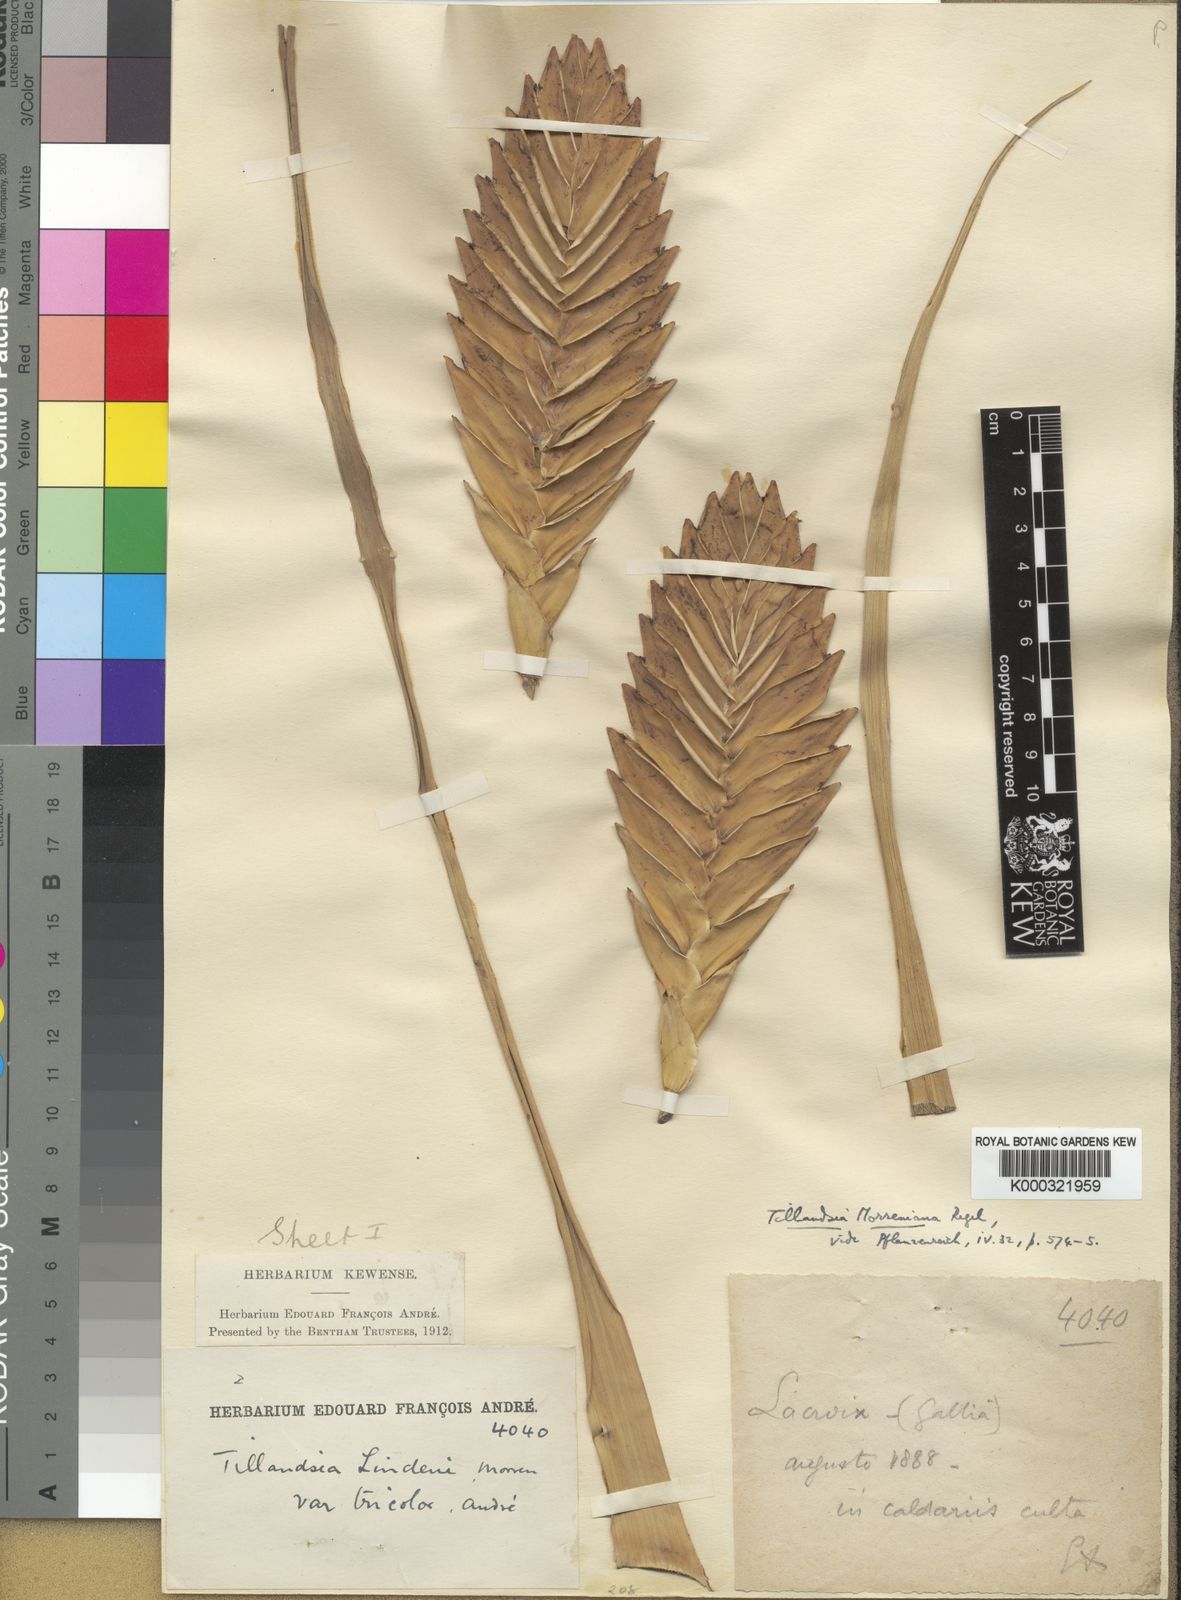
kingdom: Plantae
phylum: Tracheophyta
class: Liliopsida
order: Poales
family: Bromeliaceae
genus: Tillandsia
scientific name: Tillandsia
